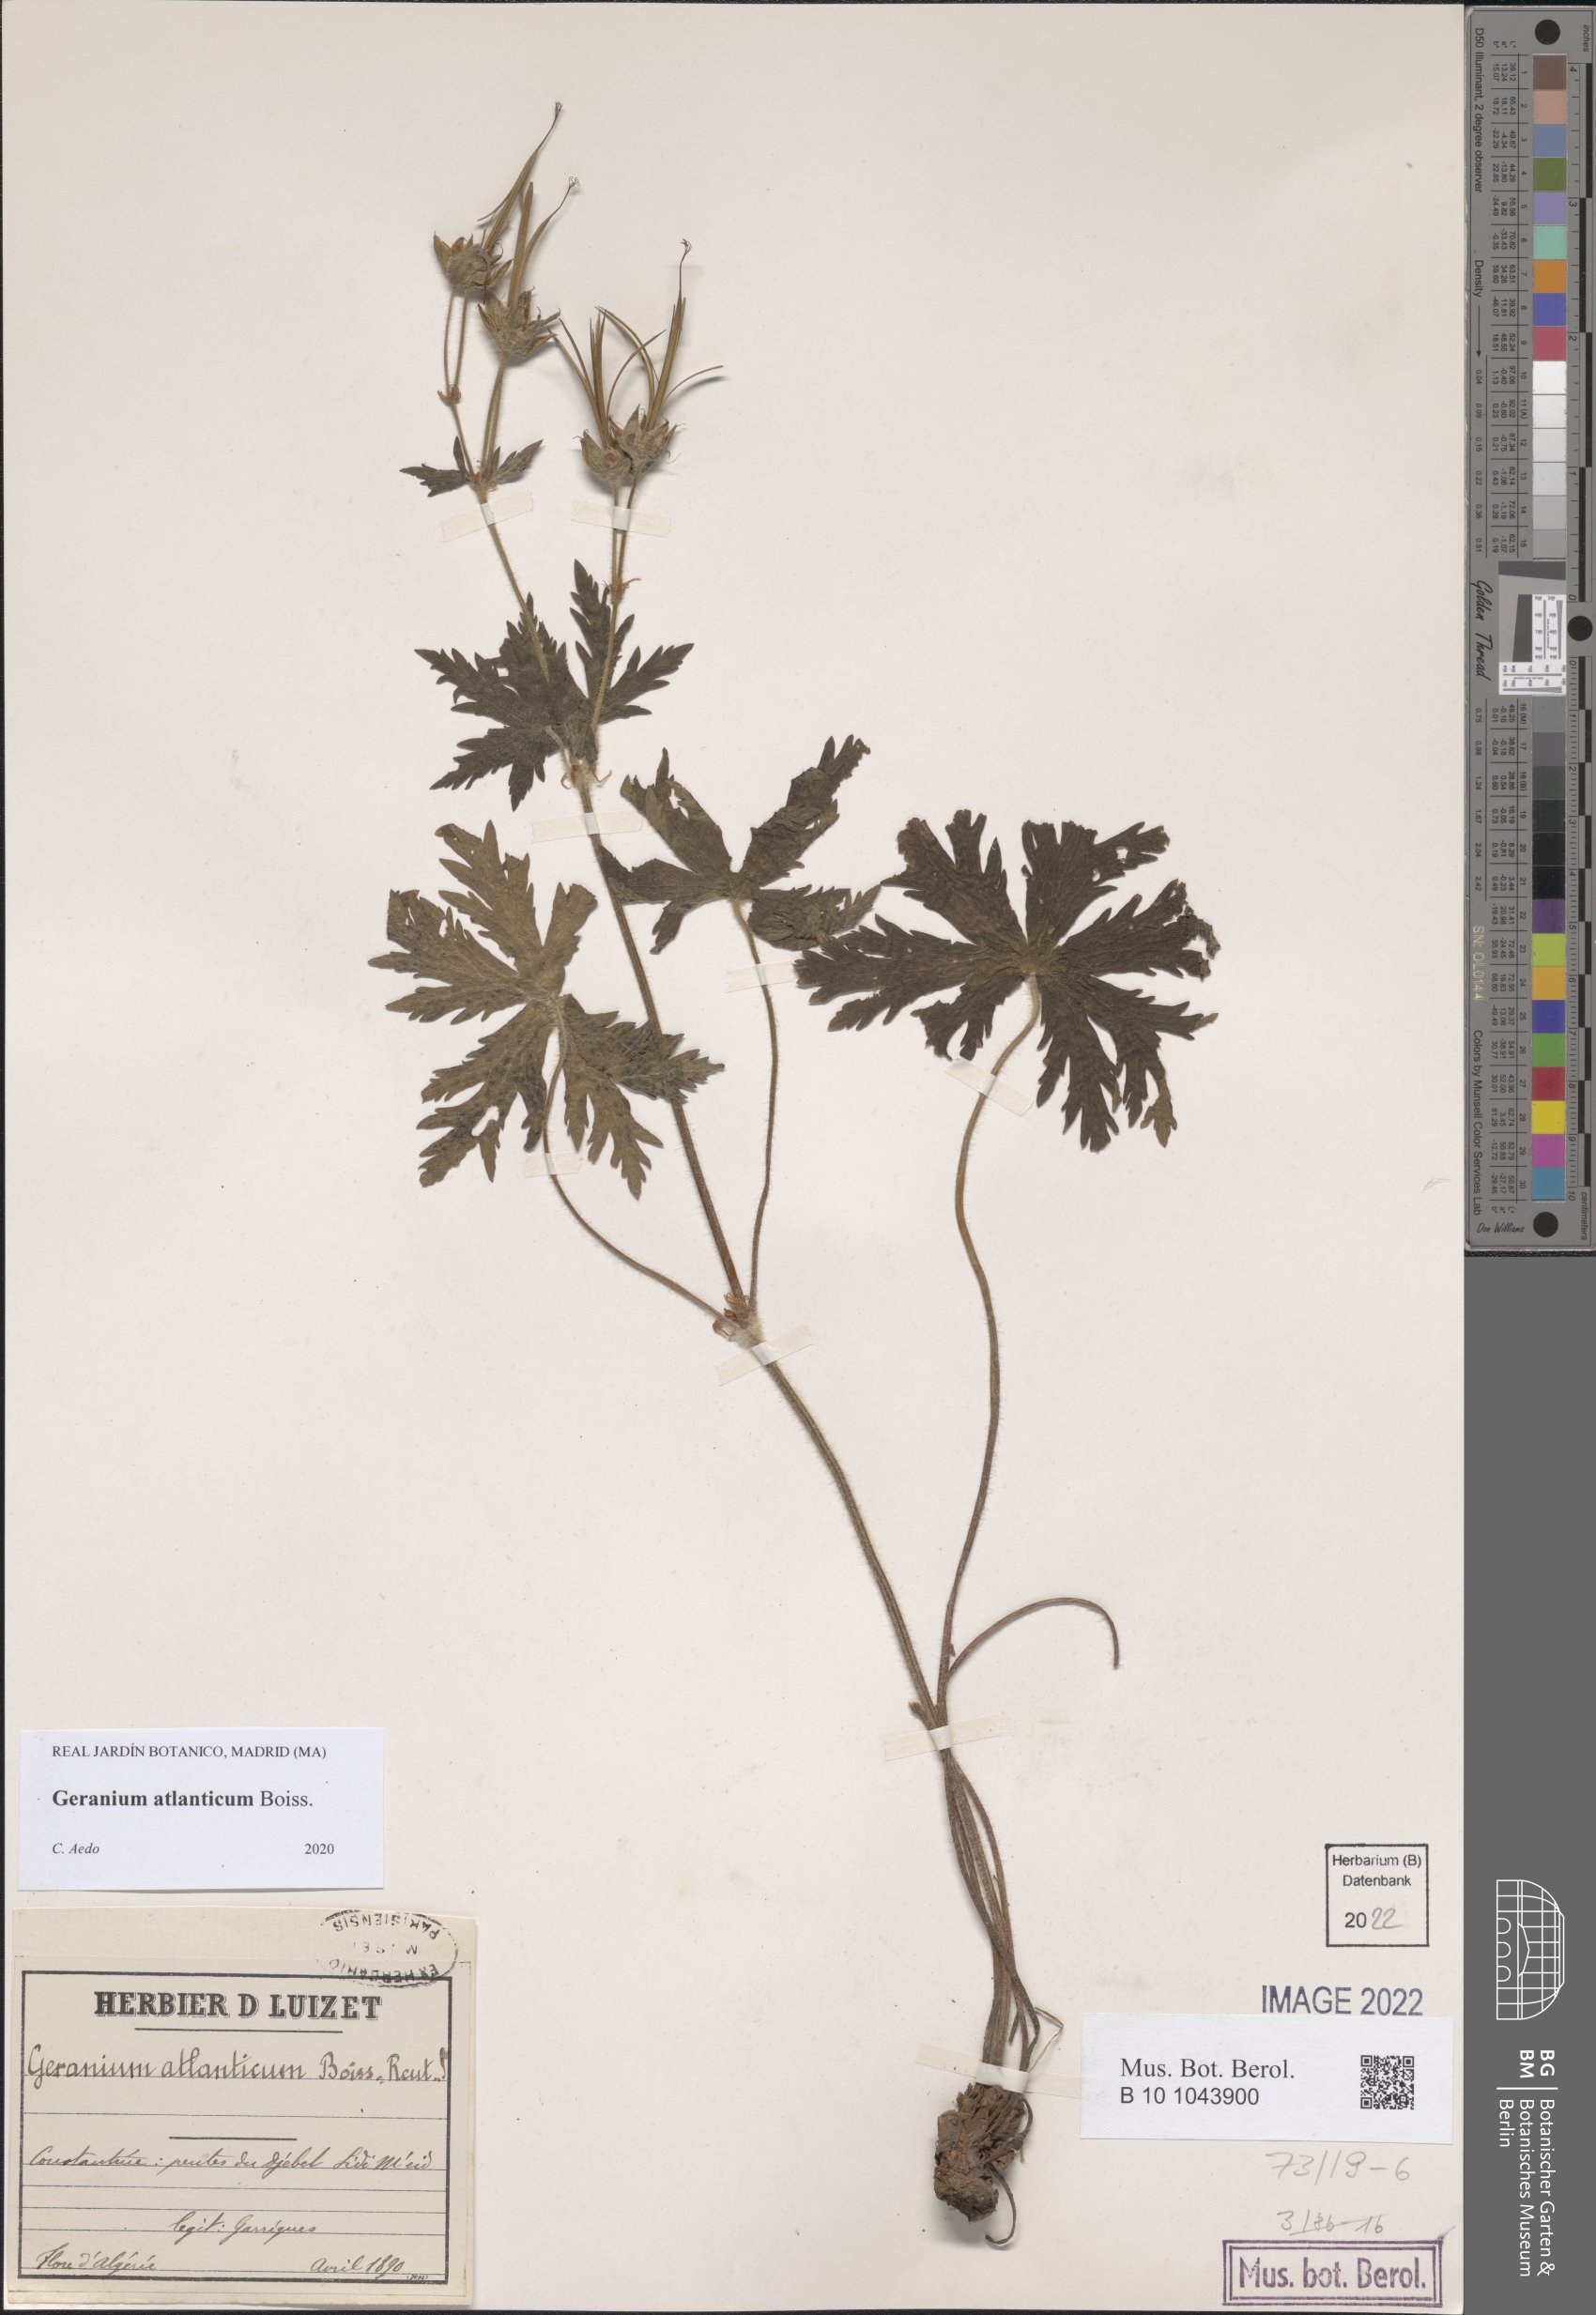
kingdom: Plantae
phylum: Tracheophyta
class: Magnoliopsida
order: Geraniales
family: Geraniaceae
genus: Geranium
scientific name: Geranium atlanticum
